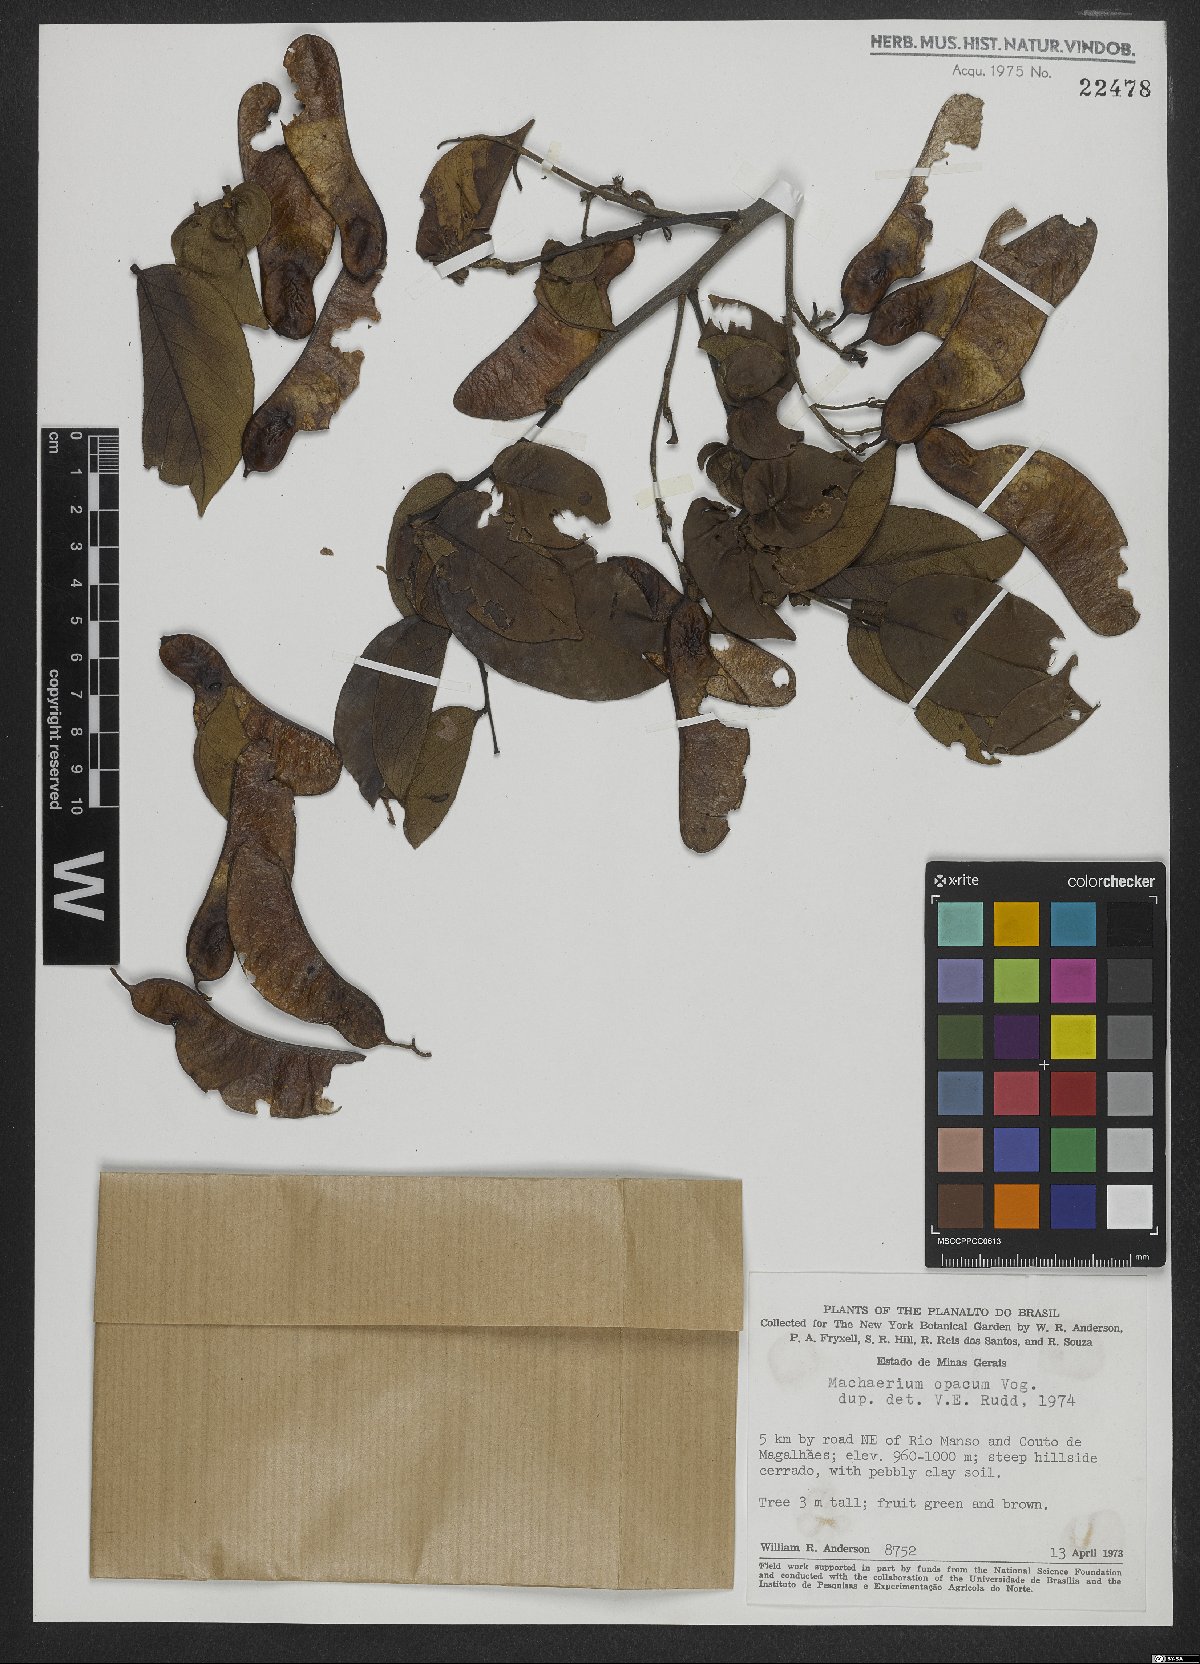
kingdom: Plantae
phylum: Tracheophyta
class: Magnoliopsida
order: Fabales
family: Fabaceae
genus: Machaerium
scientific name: Machaerium opacum
